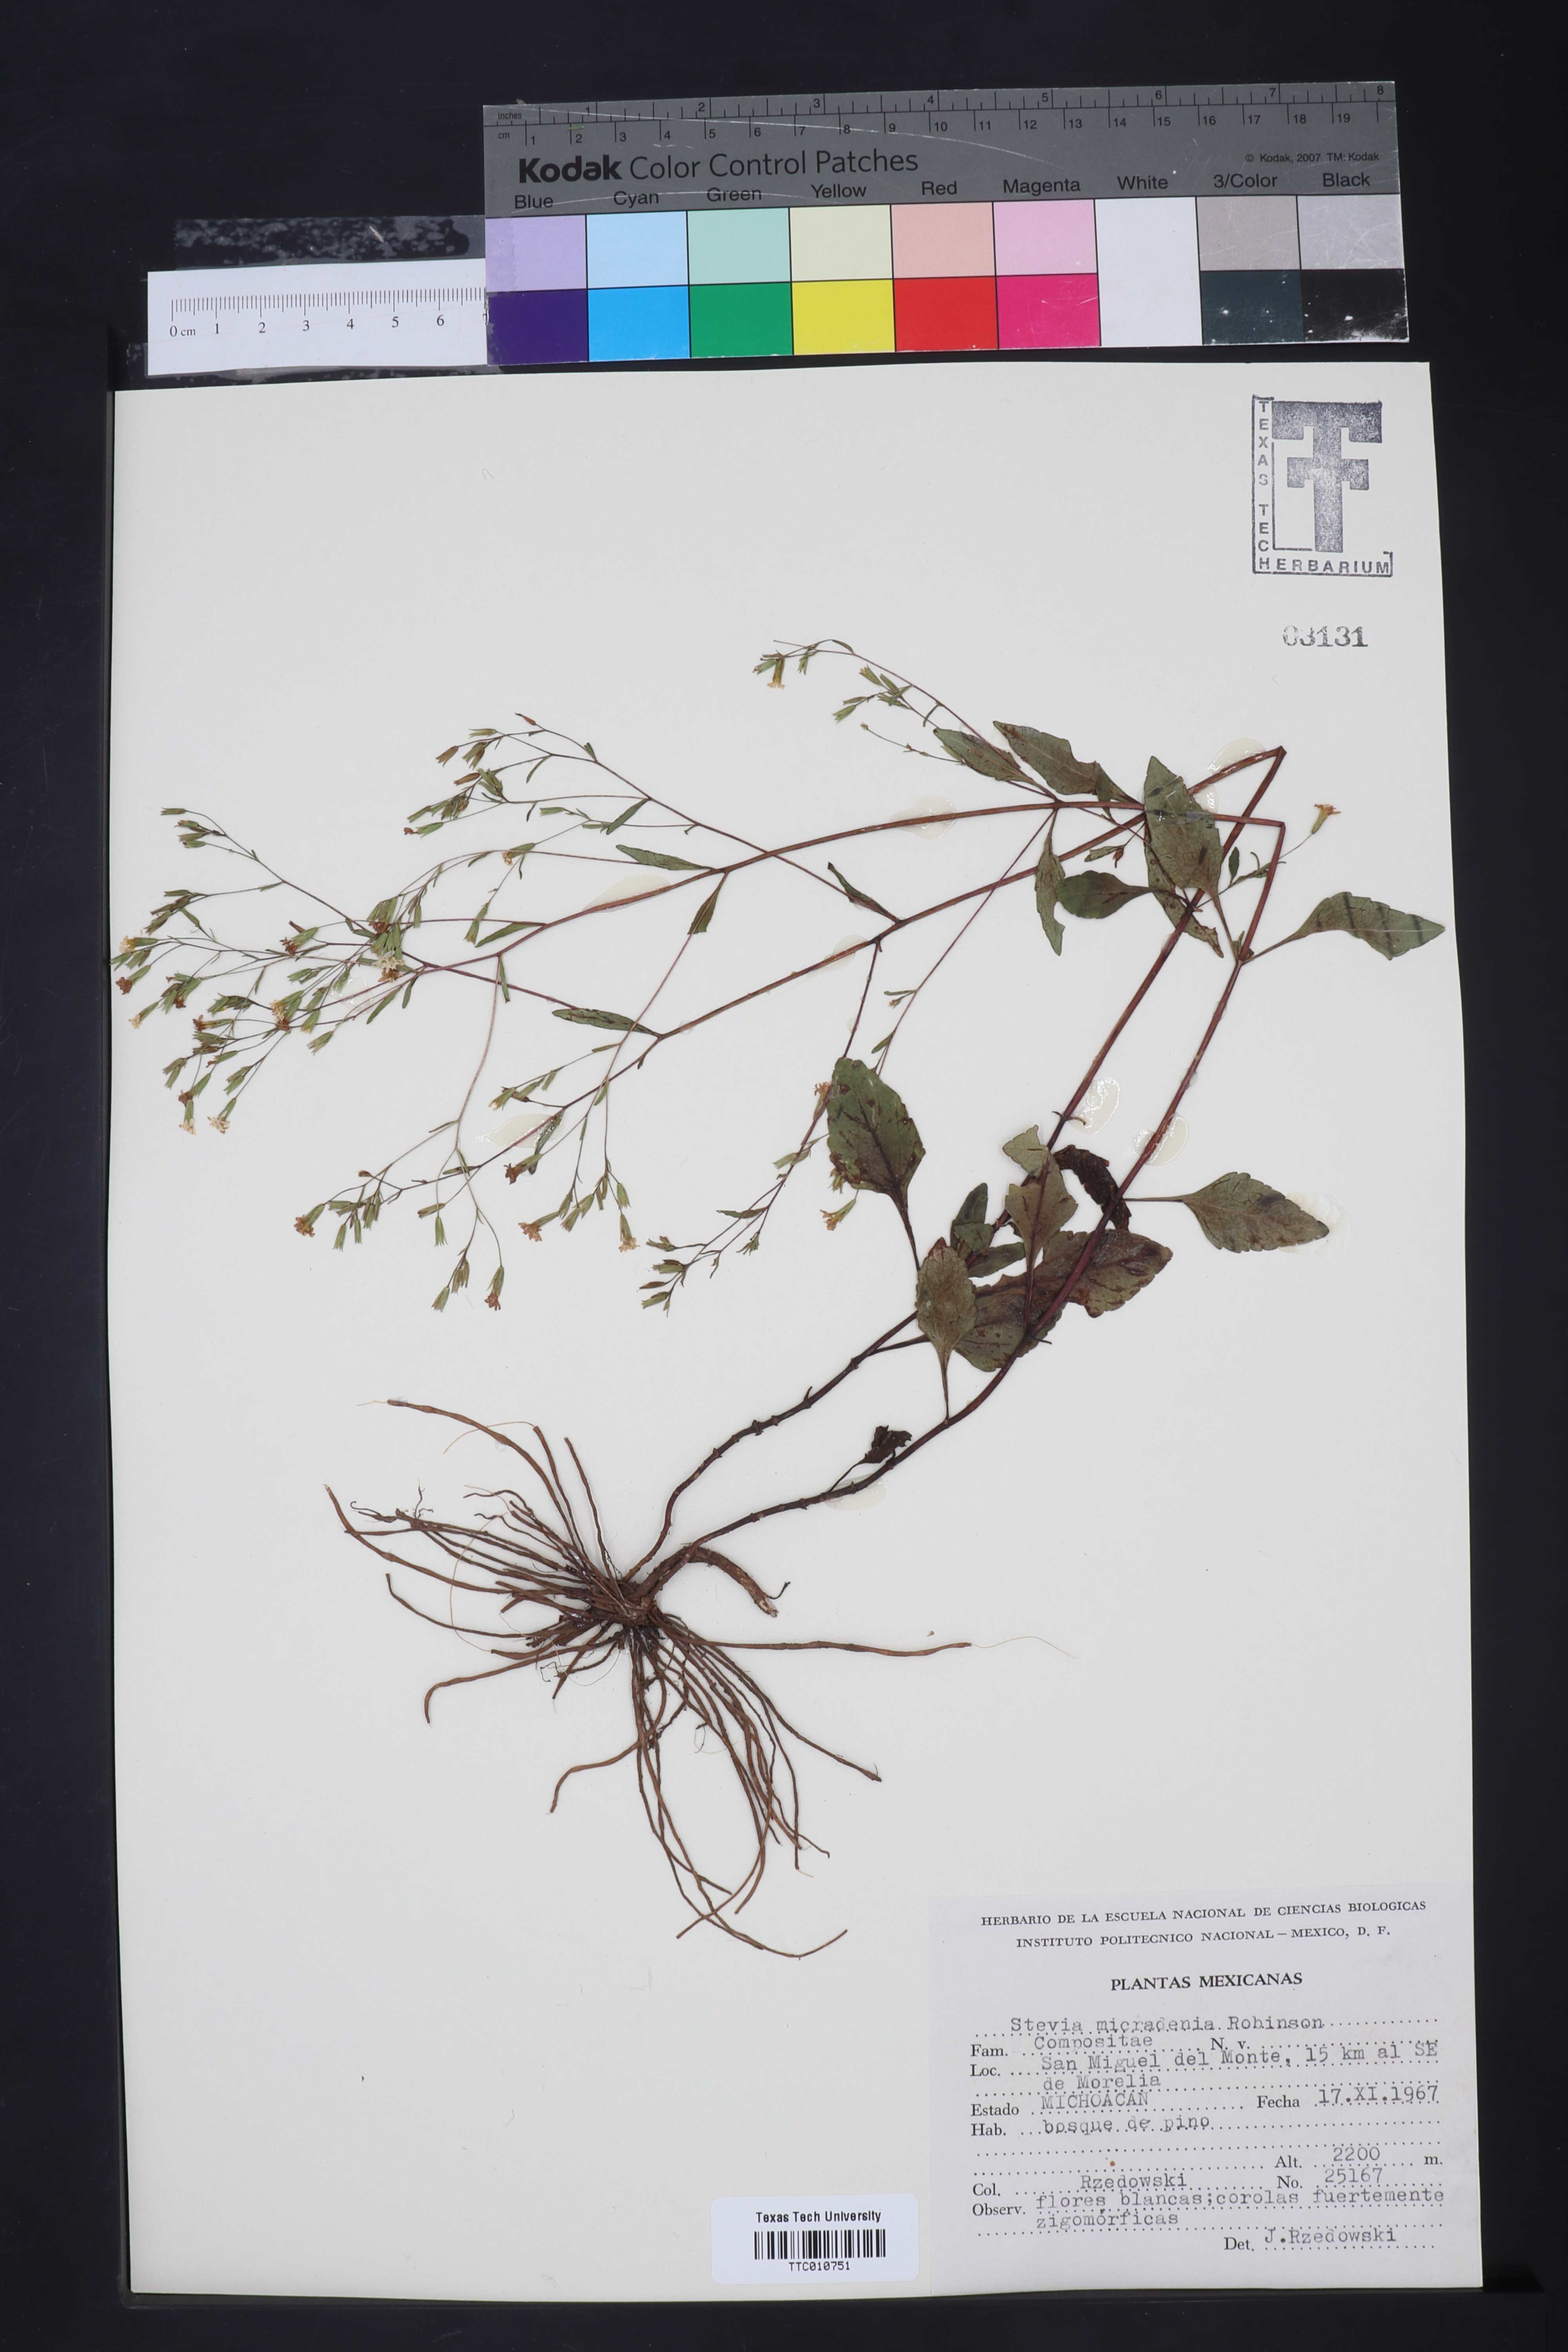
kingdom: Plantae
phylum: Tracheophyta
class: Magnoliopsida
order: Asterales
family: Asteraceae
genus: Stevia
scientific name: Stevia micradenia
